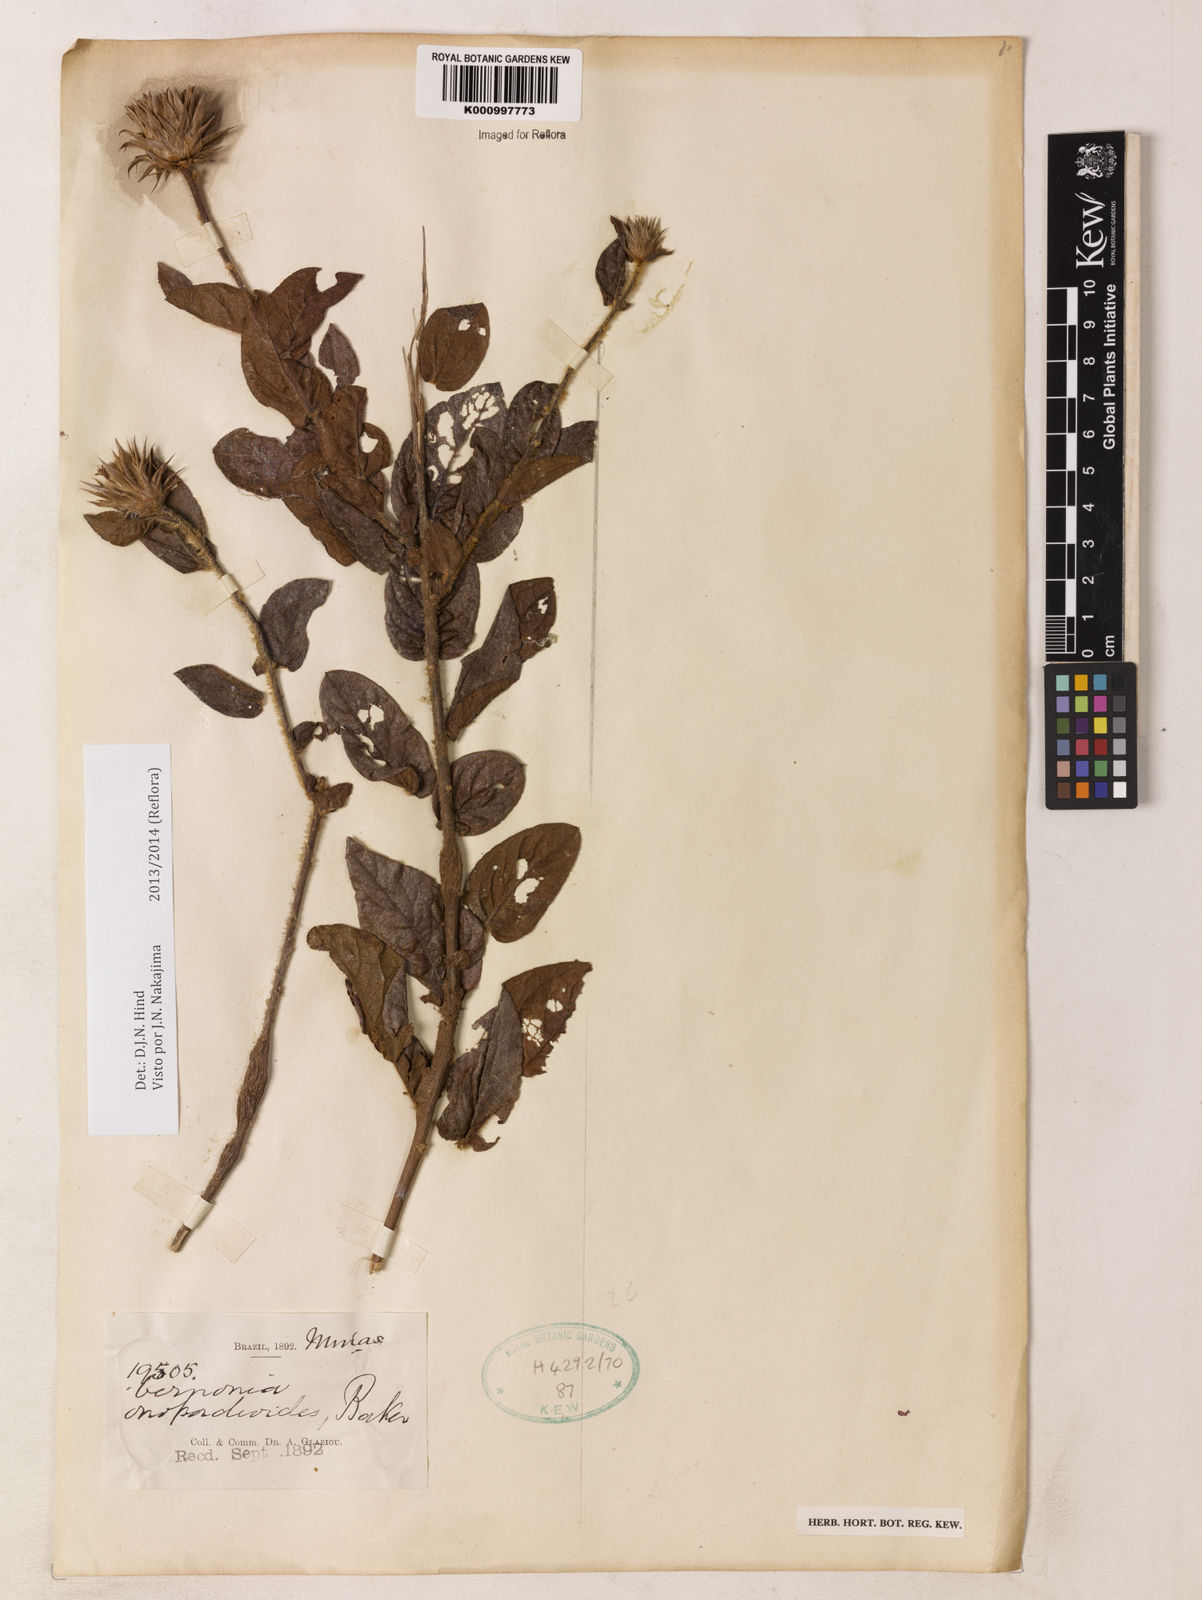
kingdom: Plantae
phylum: Tracheophyta
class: Magnoliopsida
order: Asterales
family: Asteraceae
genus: Lessingianthus
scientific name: Lessingianthus onopordioides
